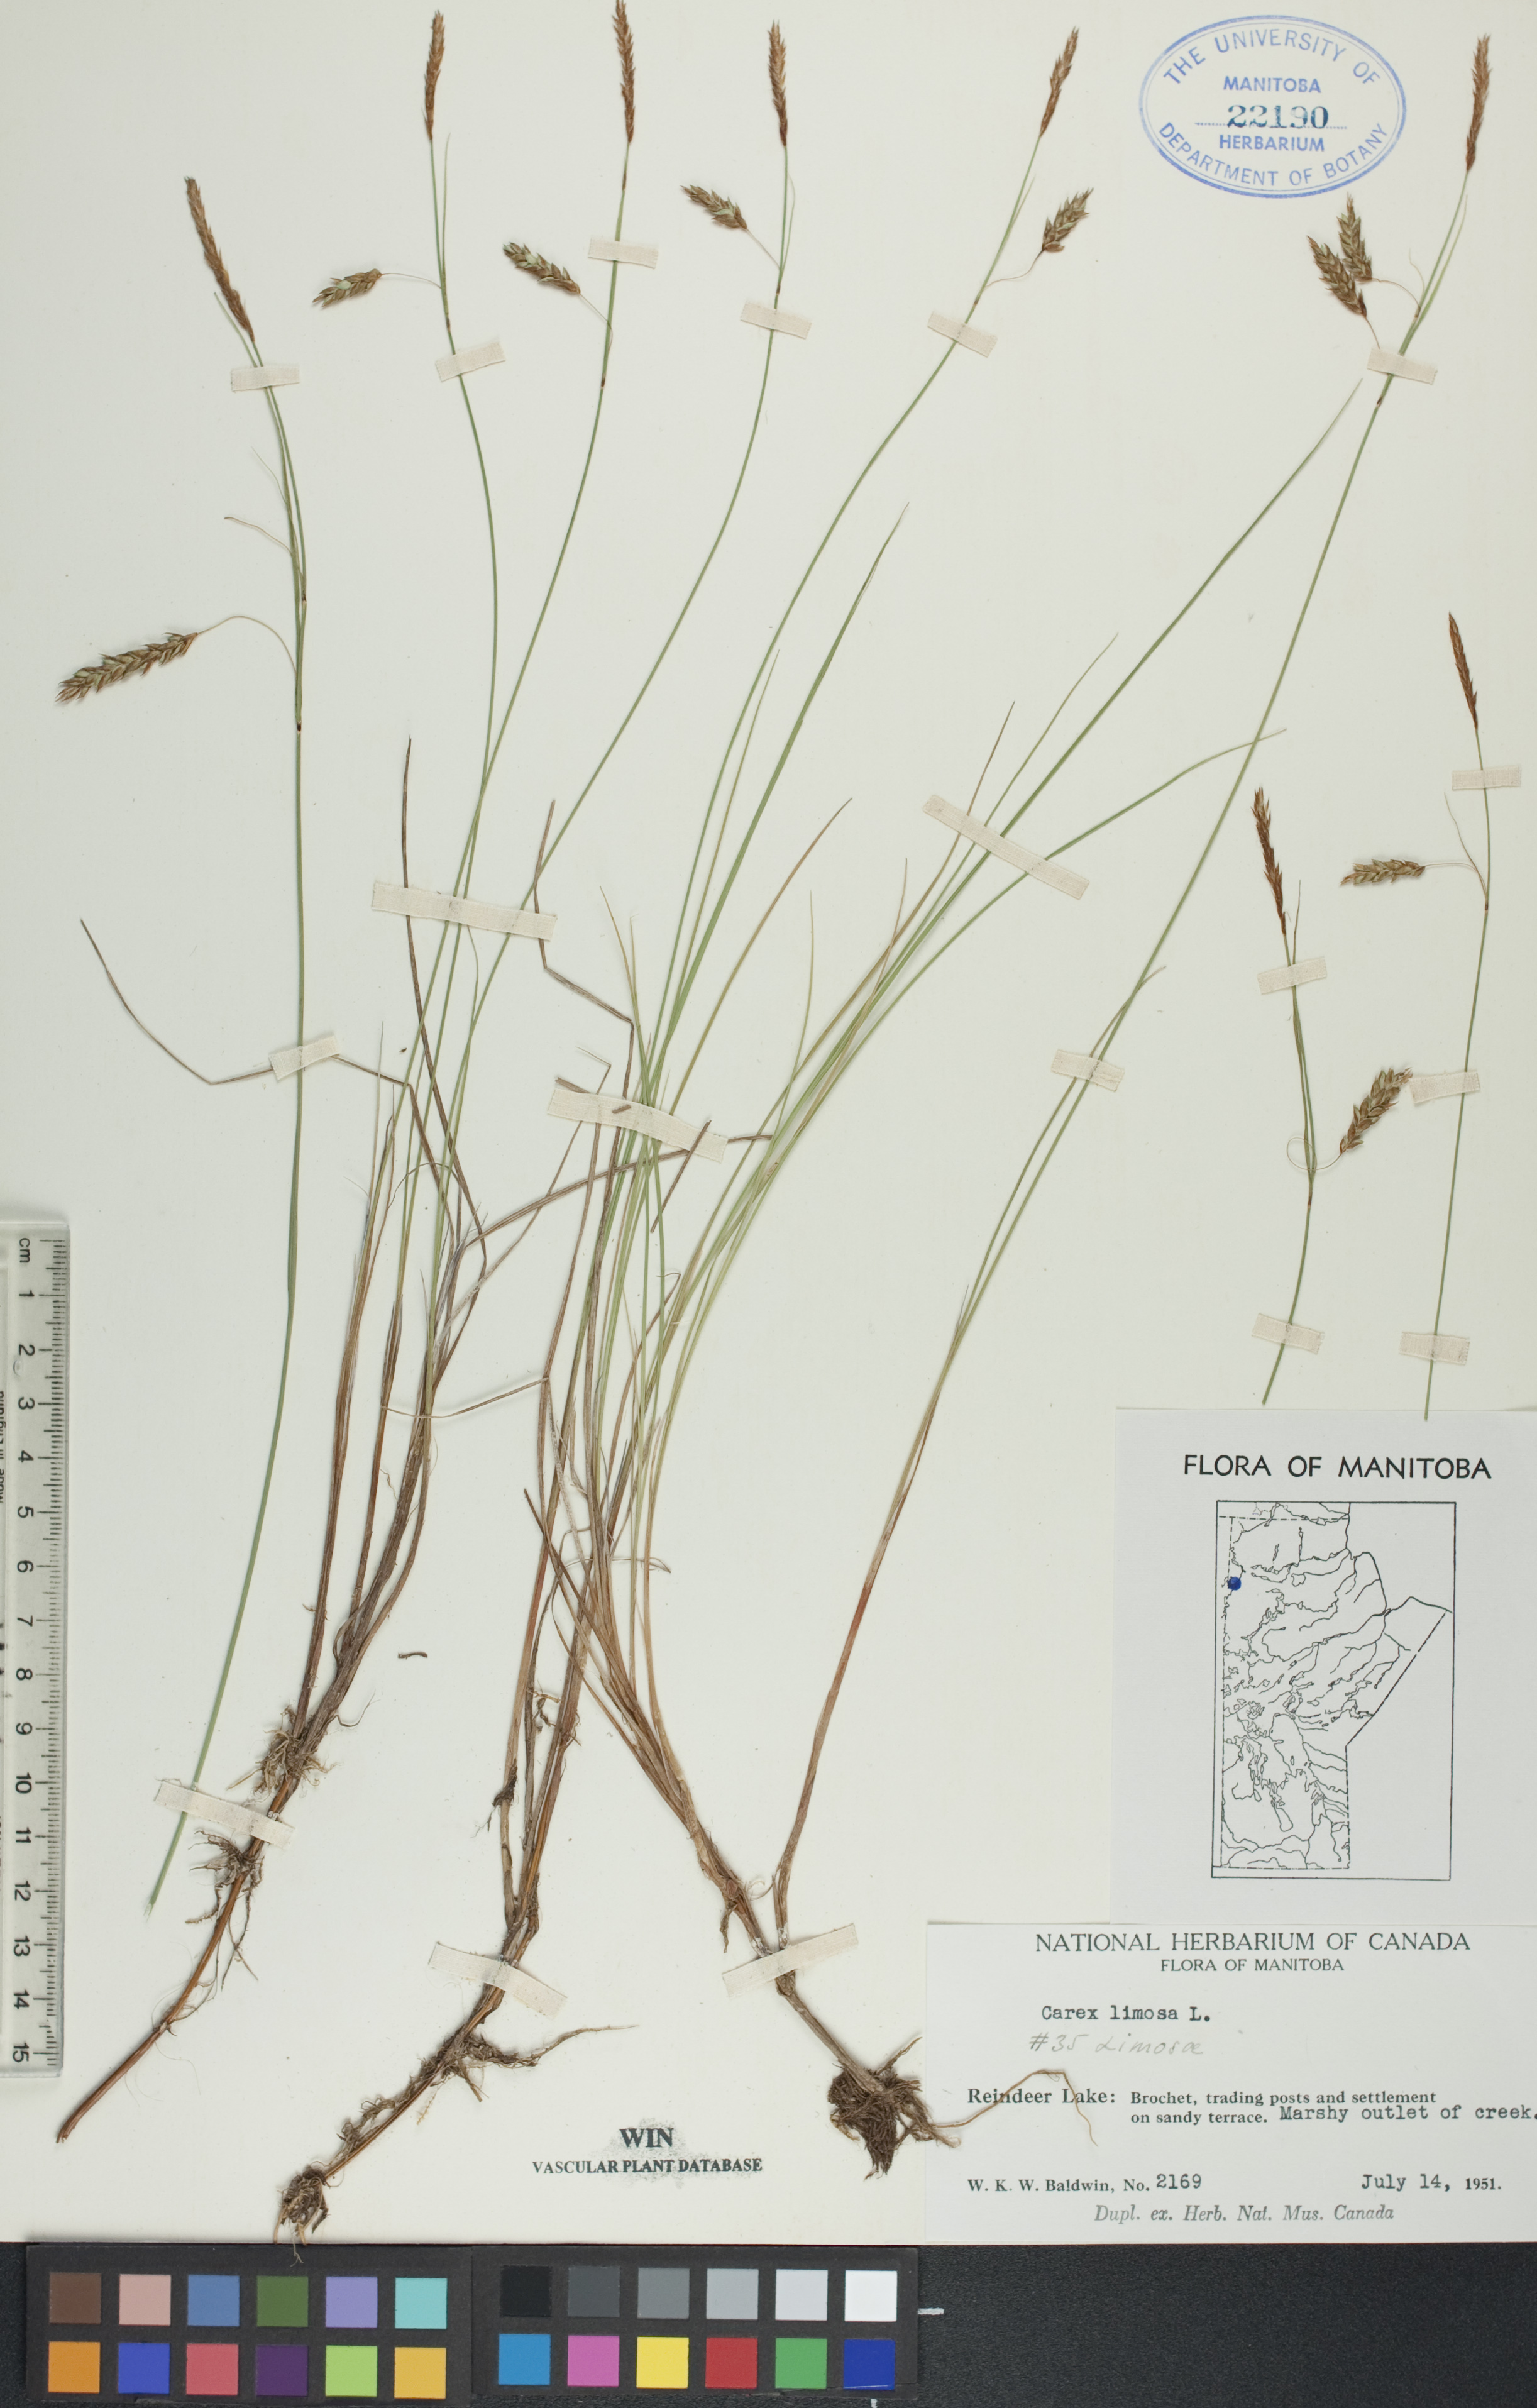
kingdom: Plantae
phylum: Tracheophyta
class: Liliopsida
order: Poales
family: Cyperaceae
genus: Carex
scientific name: Carex limosa
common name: Bog sedge
